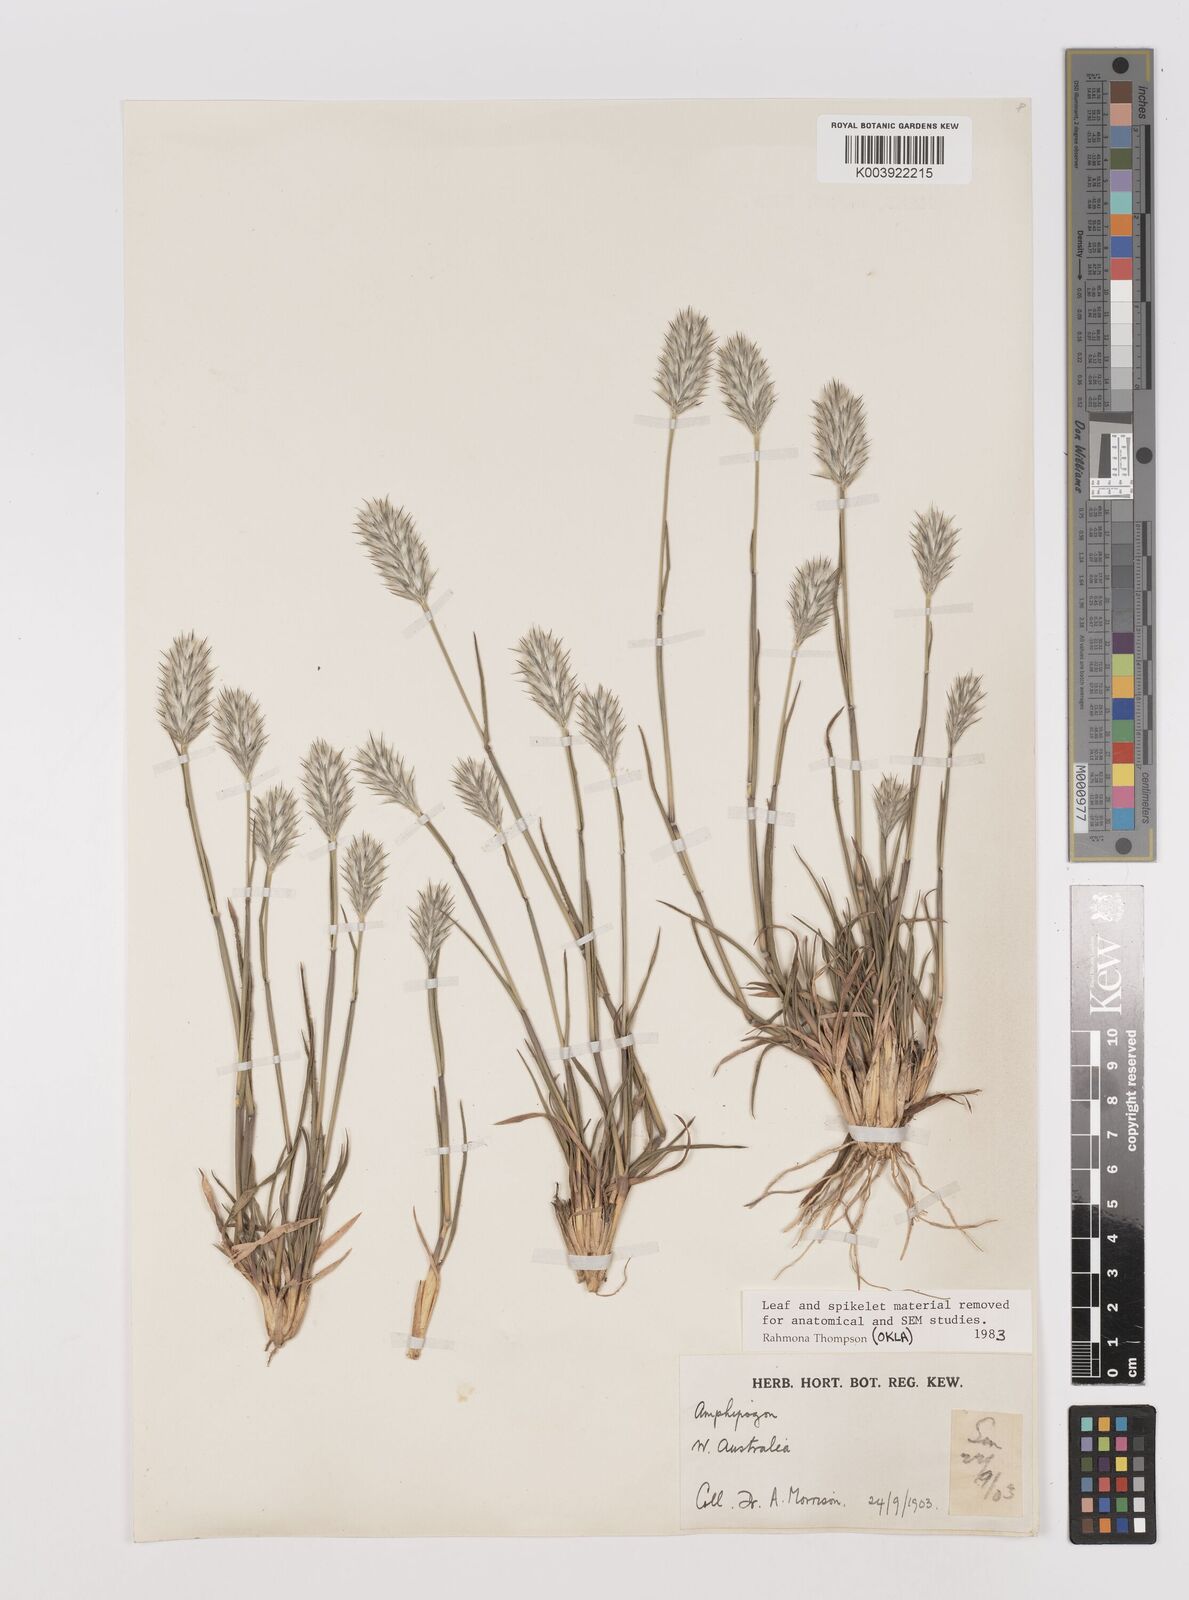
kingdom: Plantae
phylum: Tracheophyta
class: Liliopsida
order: Poales
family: Poaceae
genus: Neurachne
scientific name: Neurachne alopecuroidea
